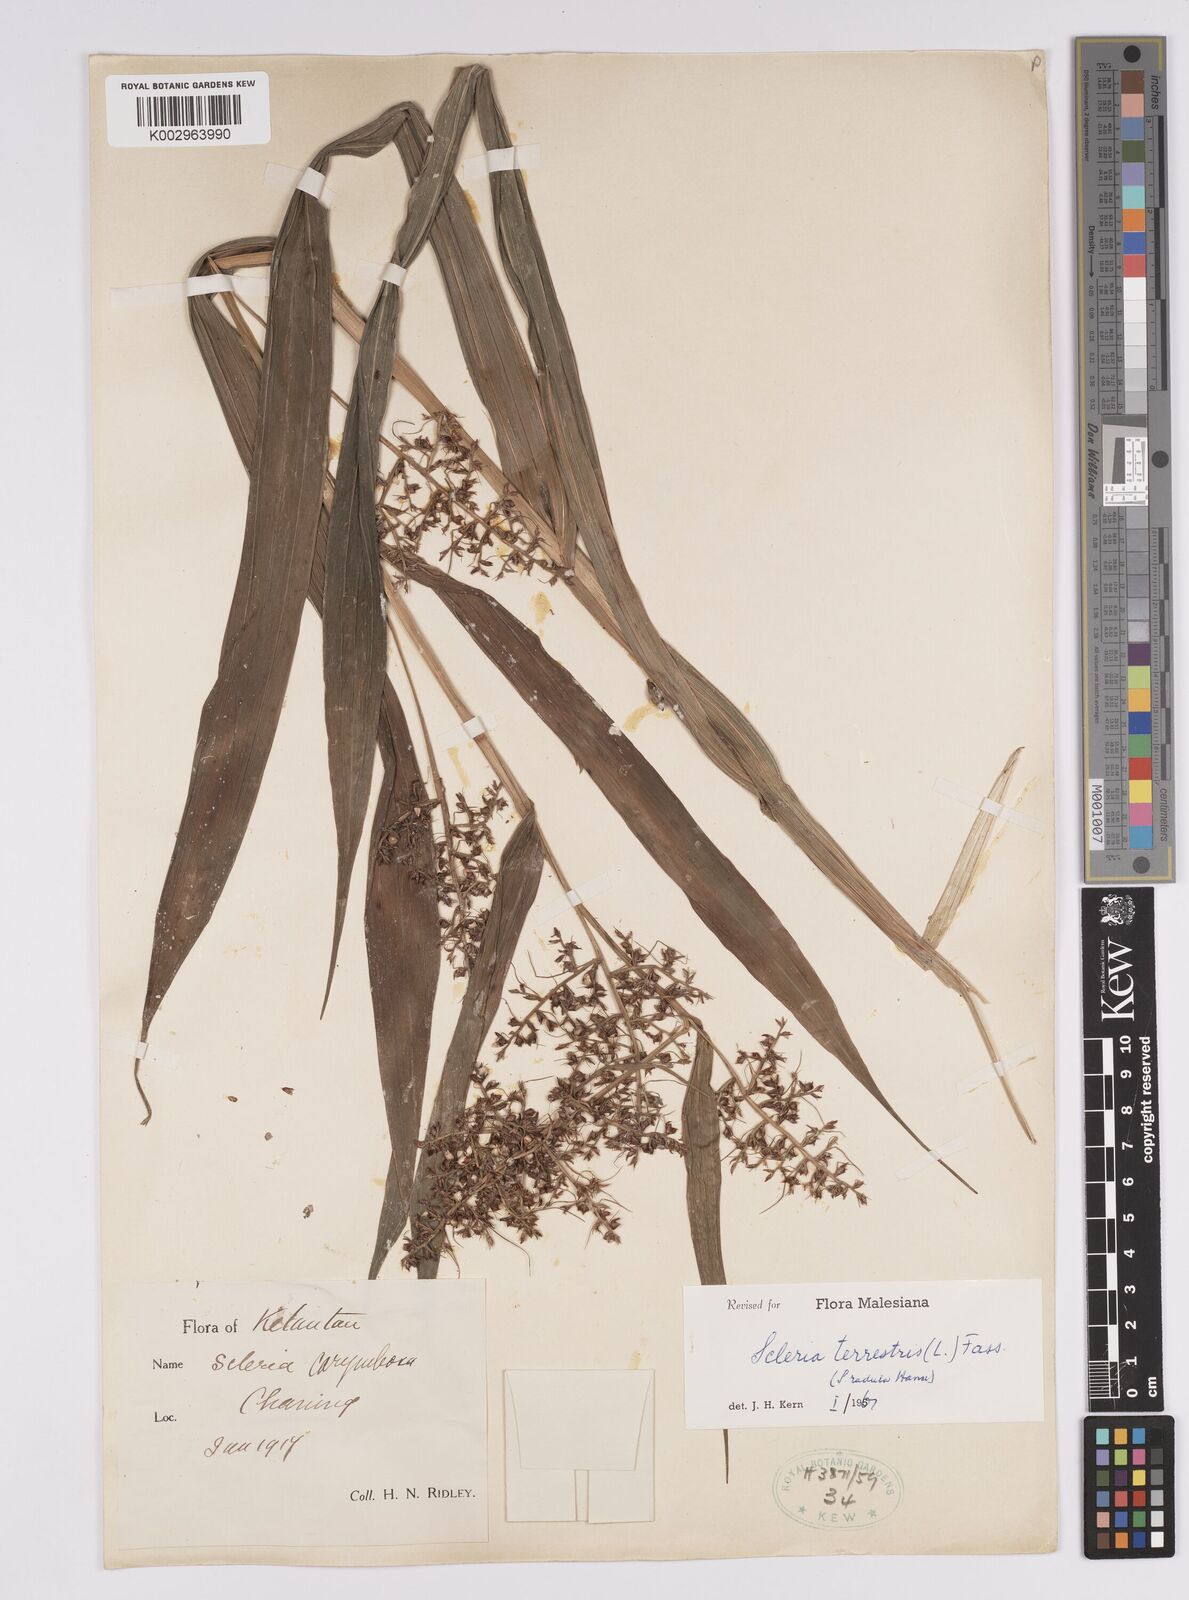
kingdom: Plantae
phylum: Tracheophyta
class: Liliopsida
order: Poales
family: Cyperaceae
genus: Scleria
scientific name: Scleria terrestris
